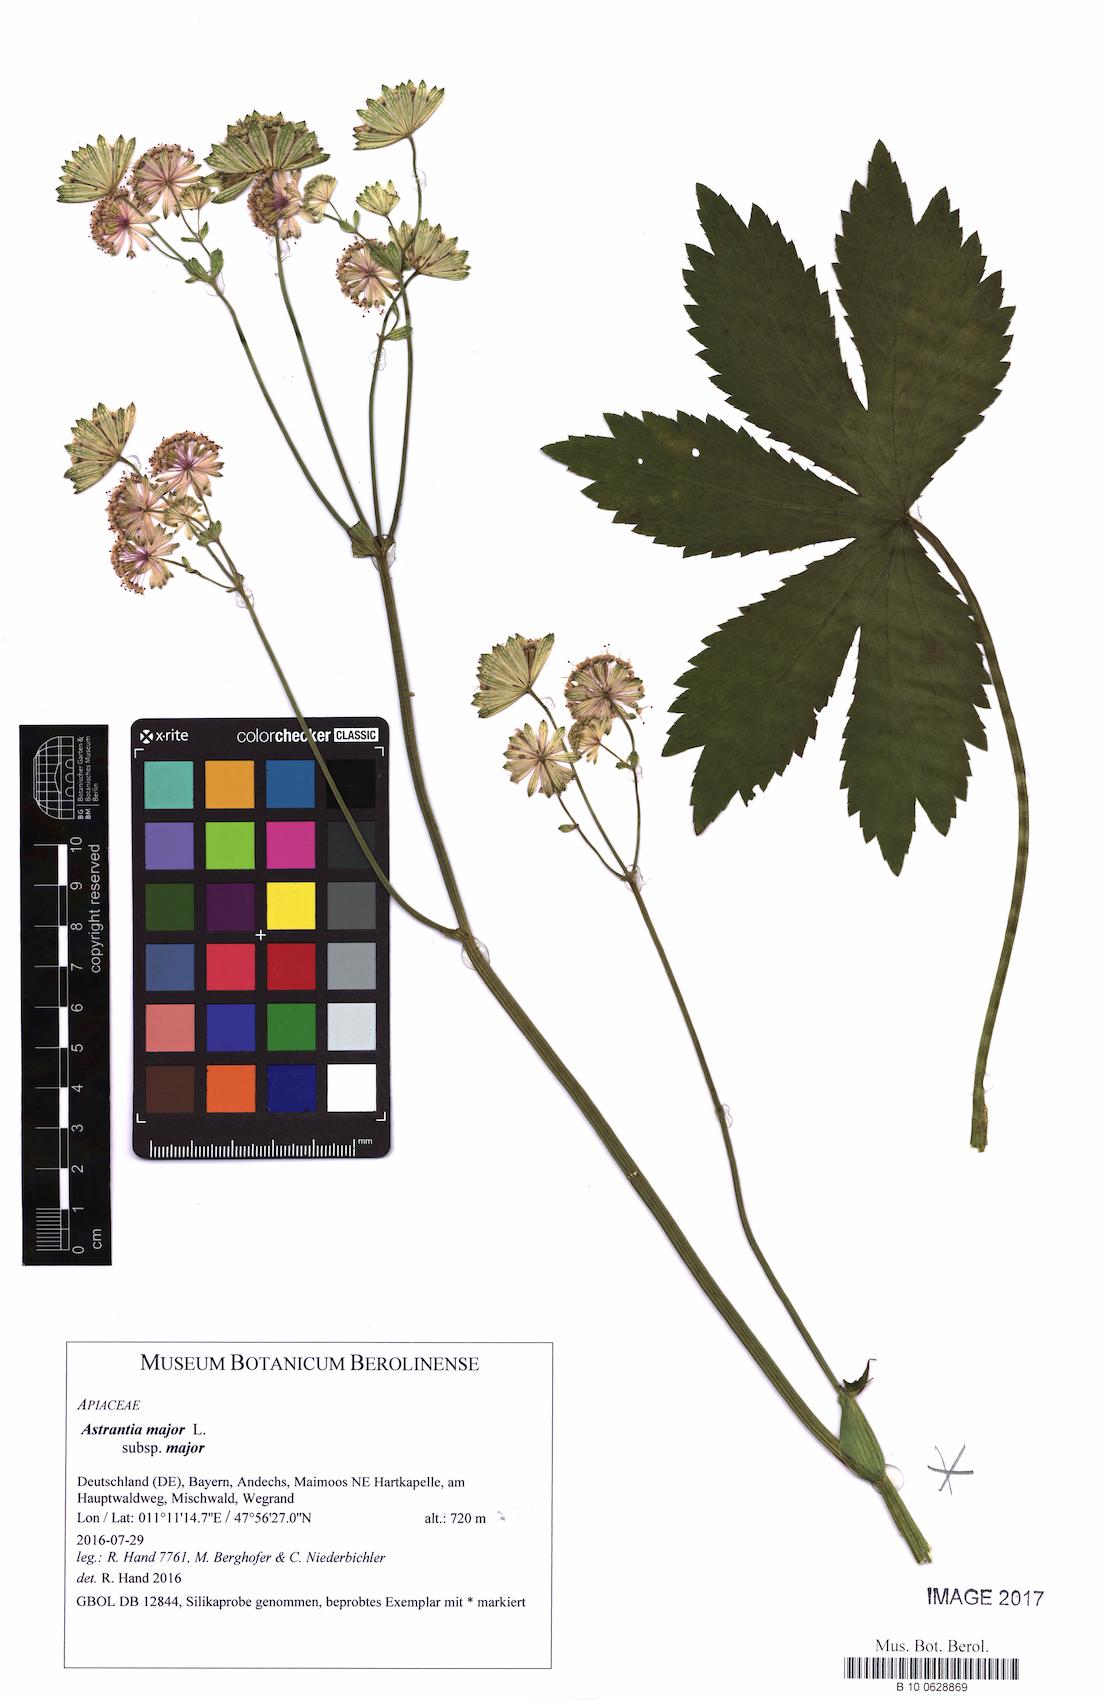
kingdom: Plantae
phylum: Tracheophyta
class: Magnoliopsida
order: Apiales
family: Apiaceae
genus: Astrantia
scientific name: Astrantia major
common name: Greater masterwort
